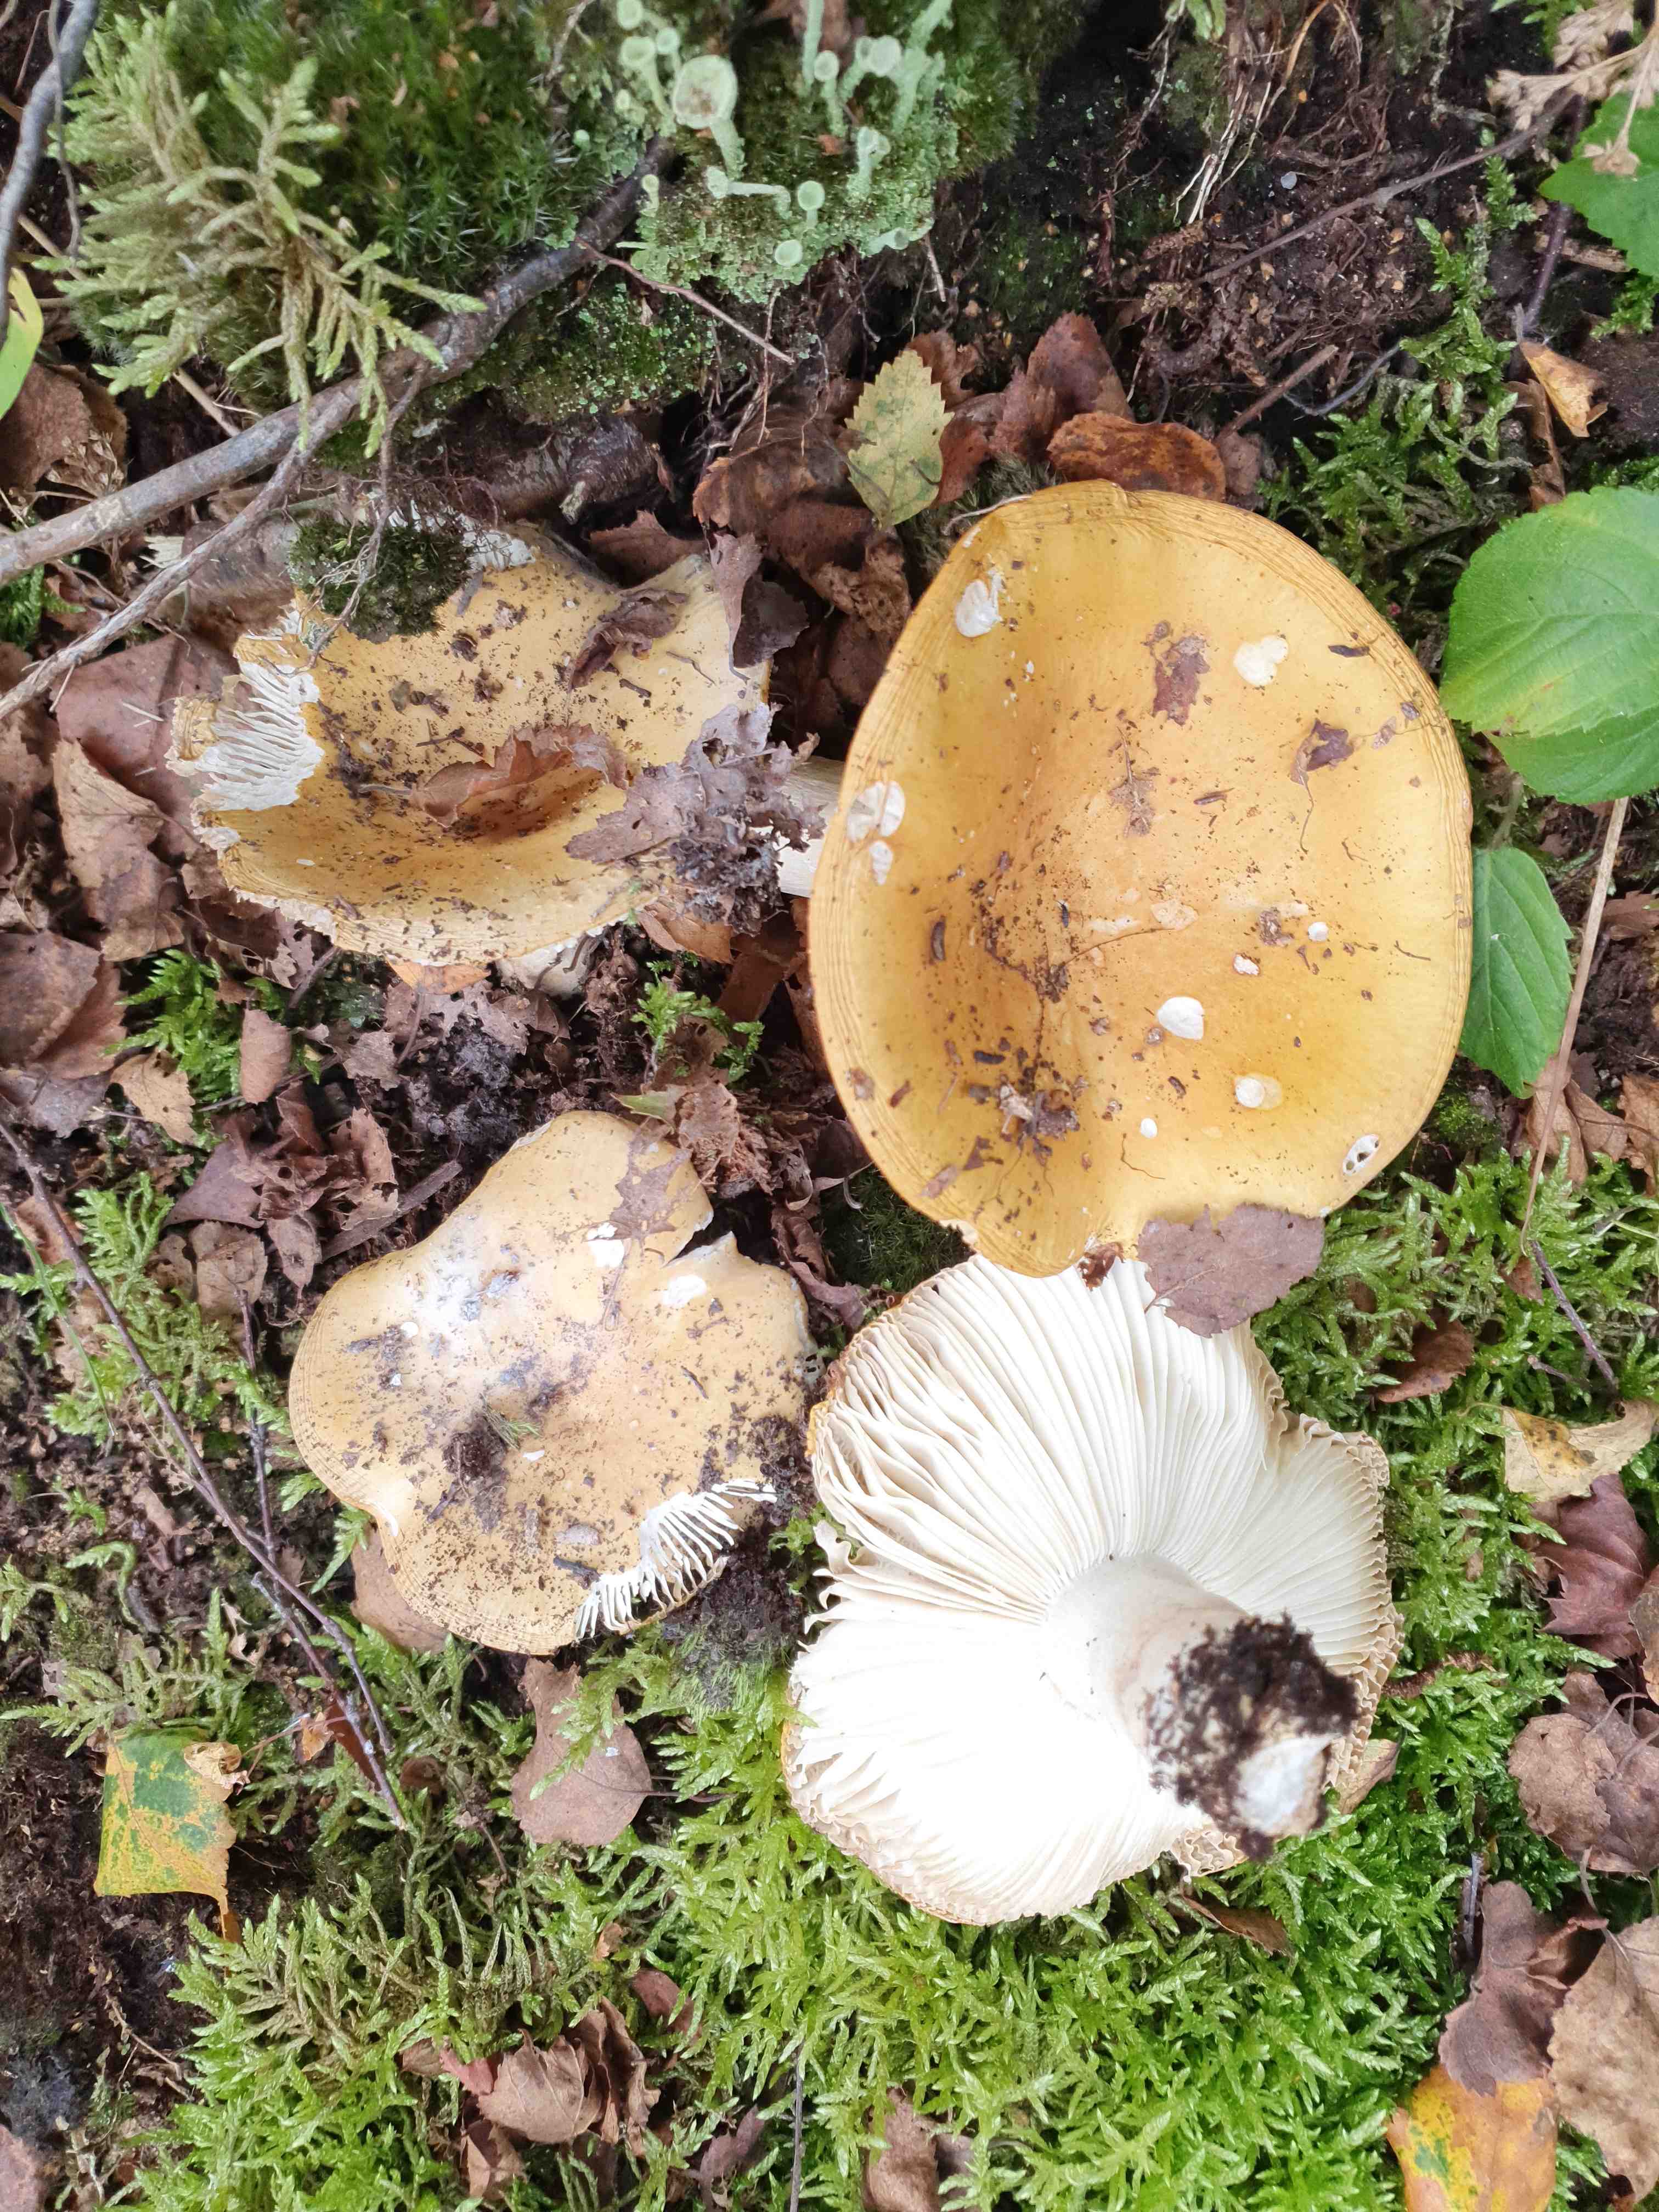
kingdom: Fungi
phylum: Basidiomycota
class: Agaricomycetes
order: Russulales
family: Russulaceae
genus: Russula
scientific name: Russula ochroleuca
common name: okkergul skørhat
